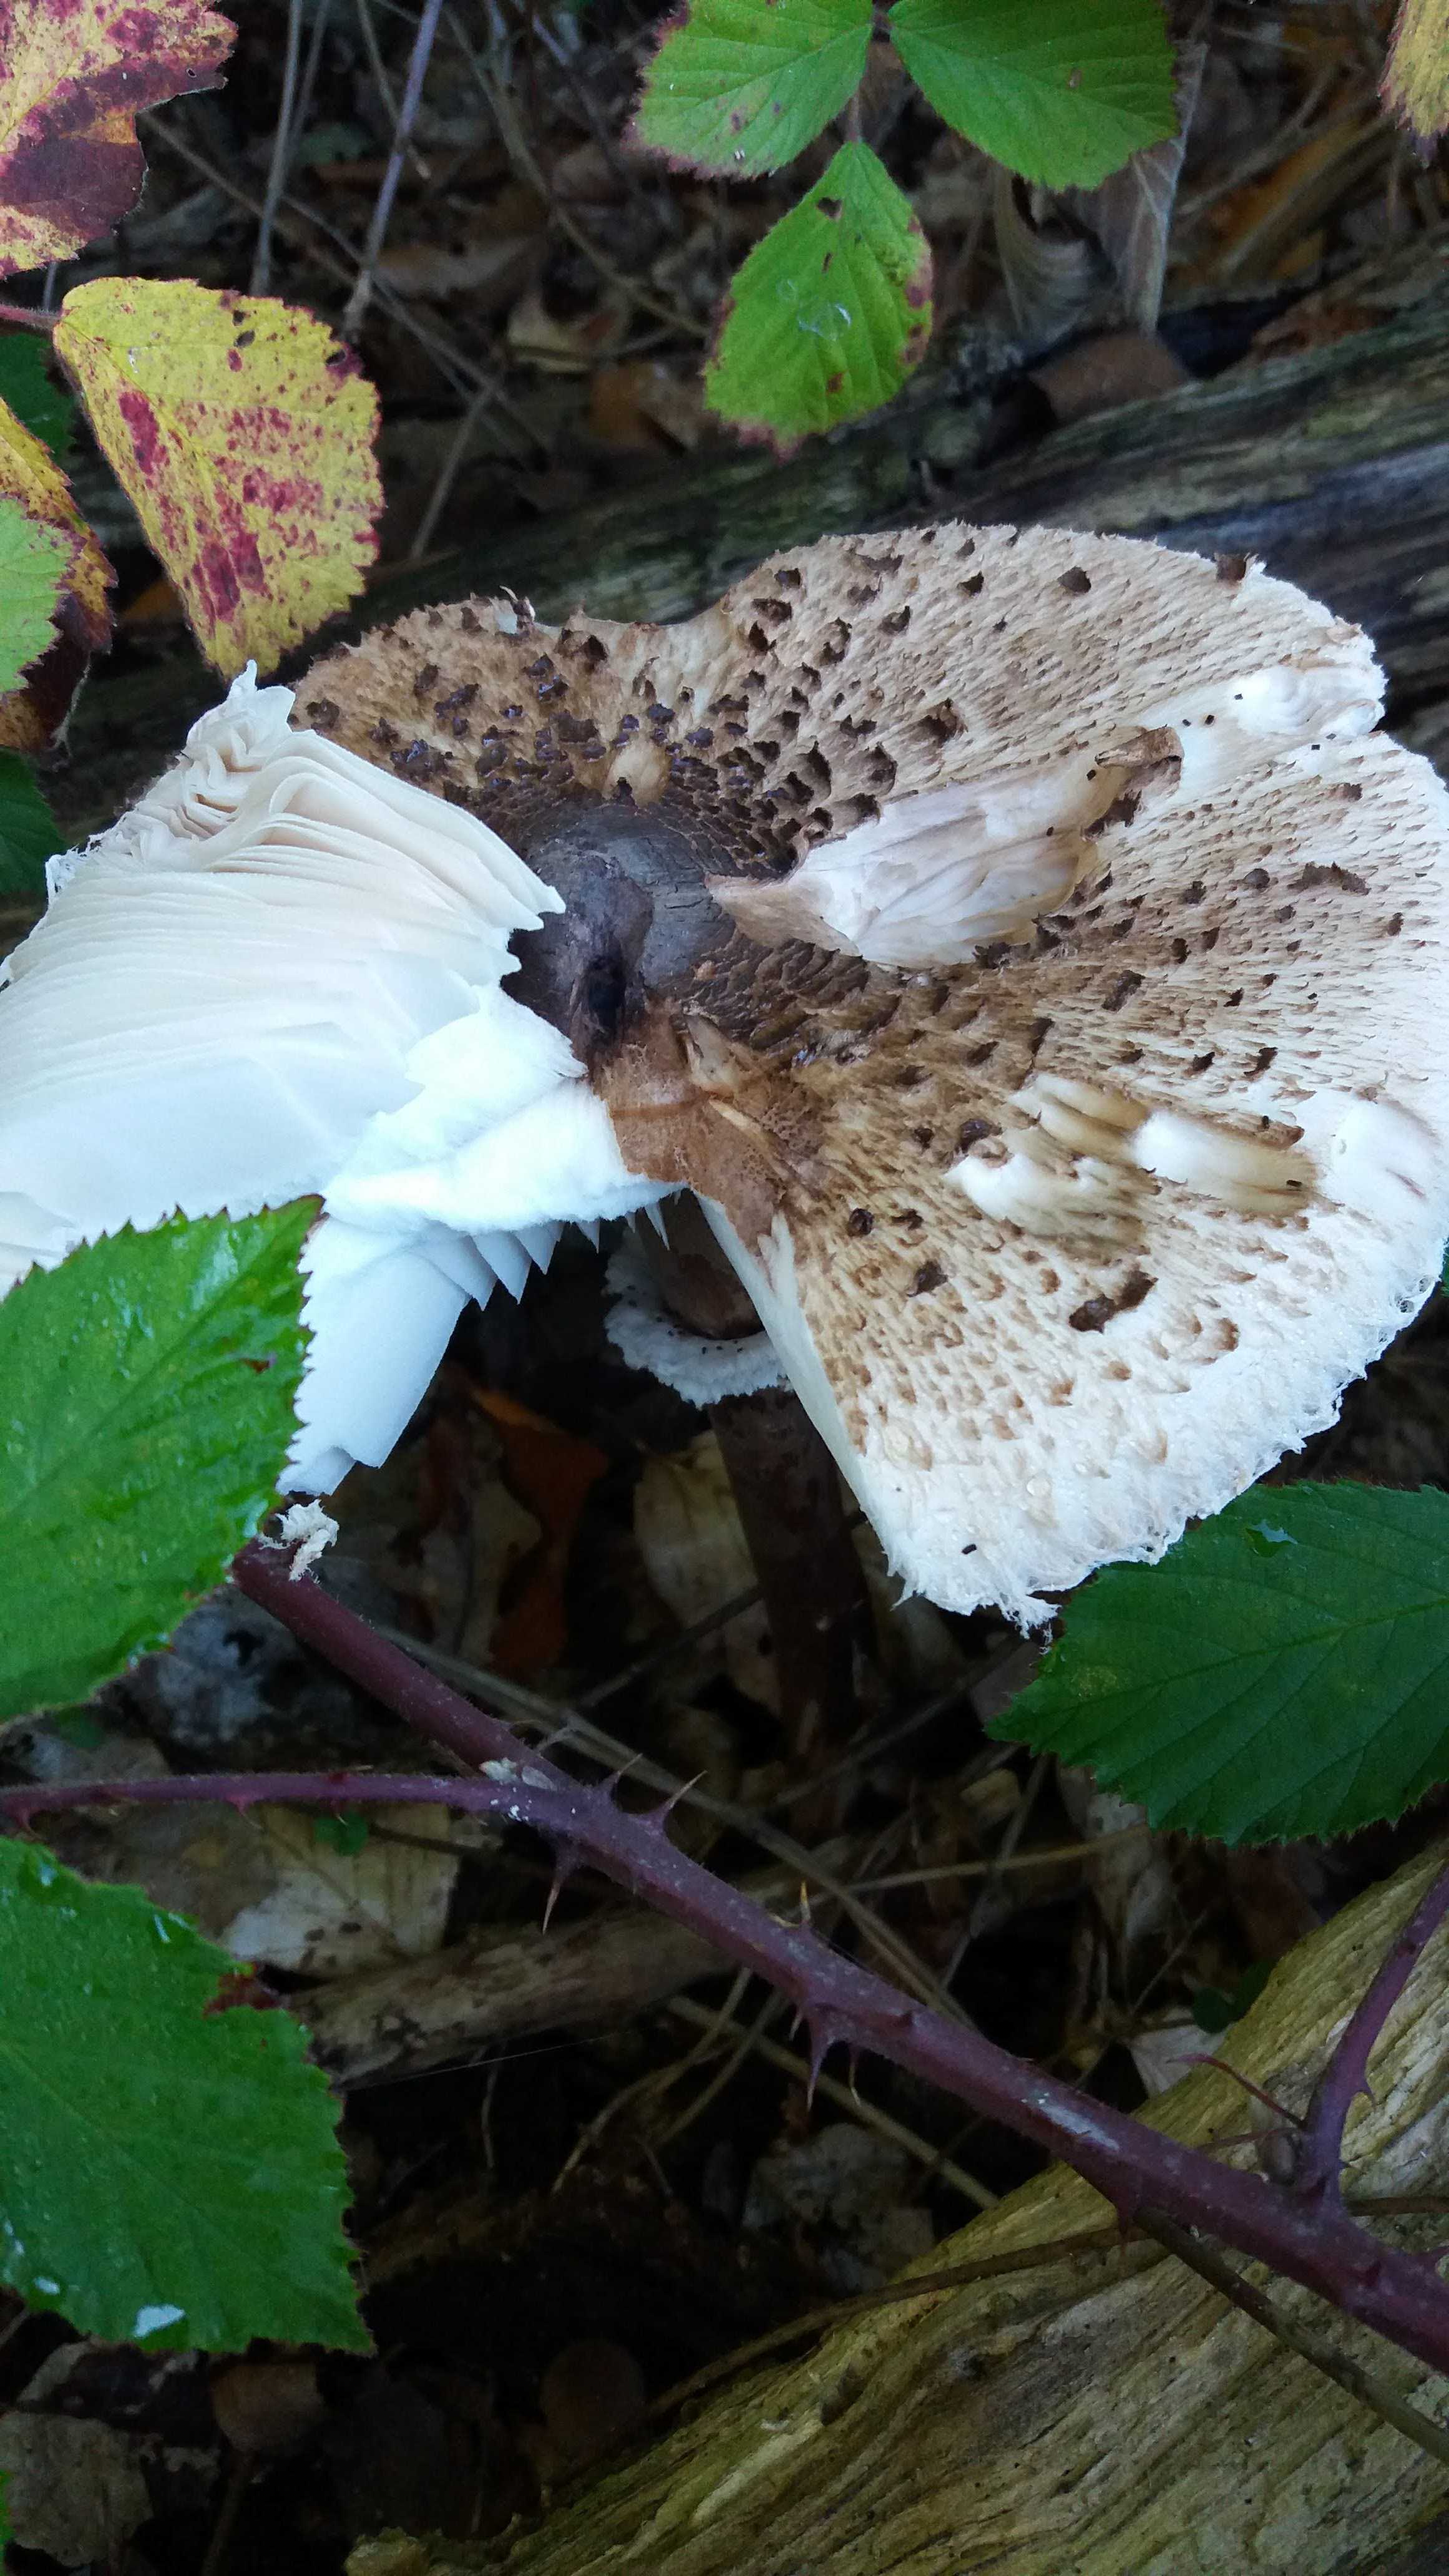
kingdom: Fungi
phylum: Basidiomycota
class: Agaricomycetes
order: Agaricales
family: Agaricaceae
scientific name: Agaricaceae
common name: champignonfamilien
